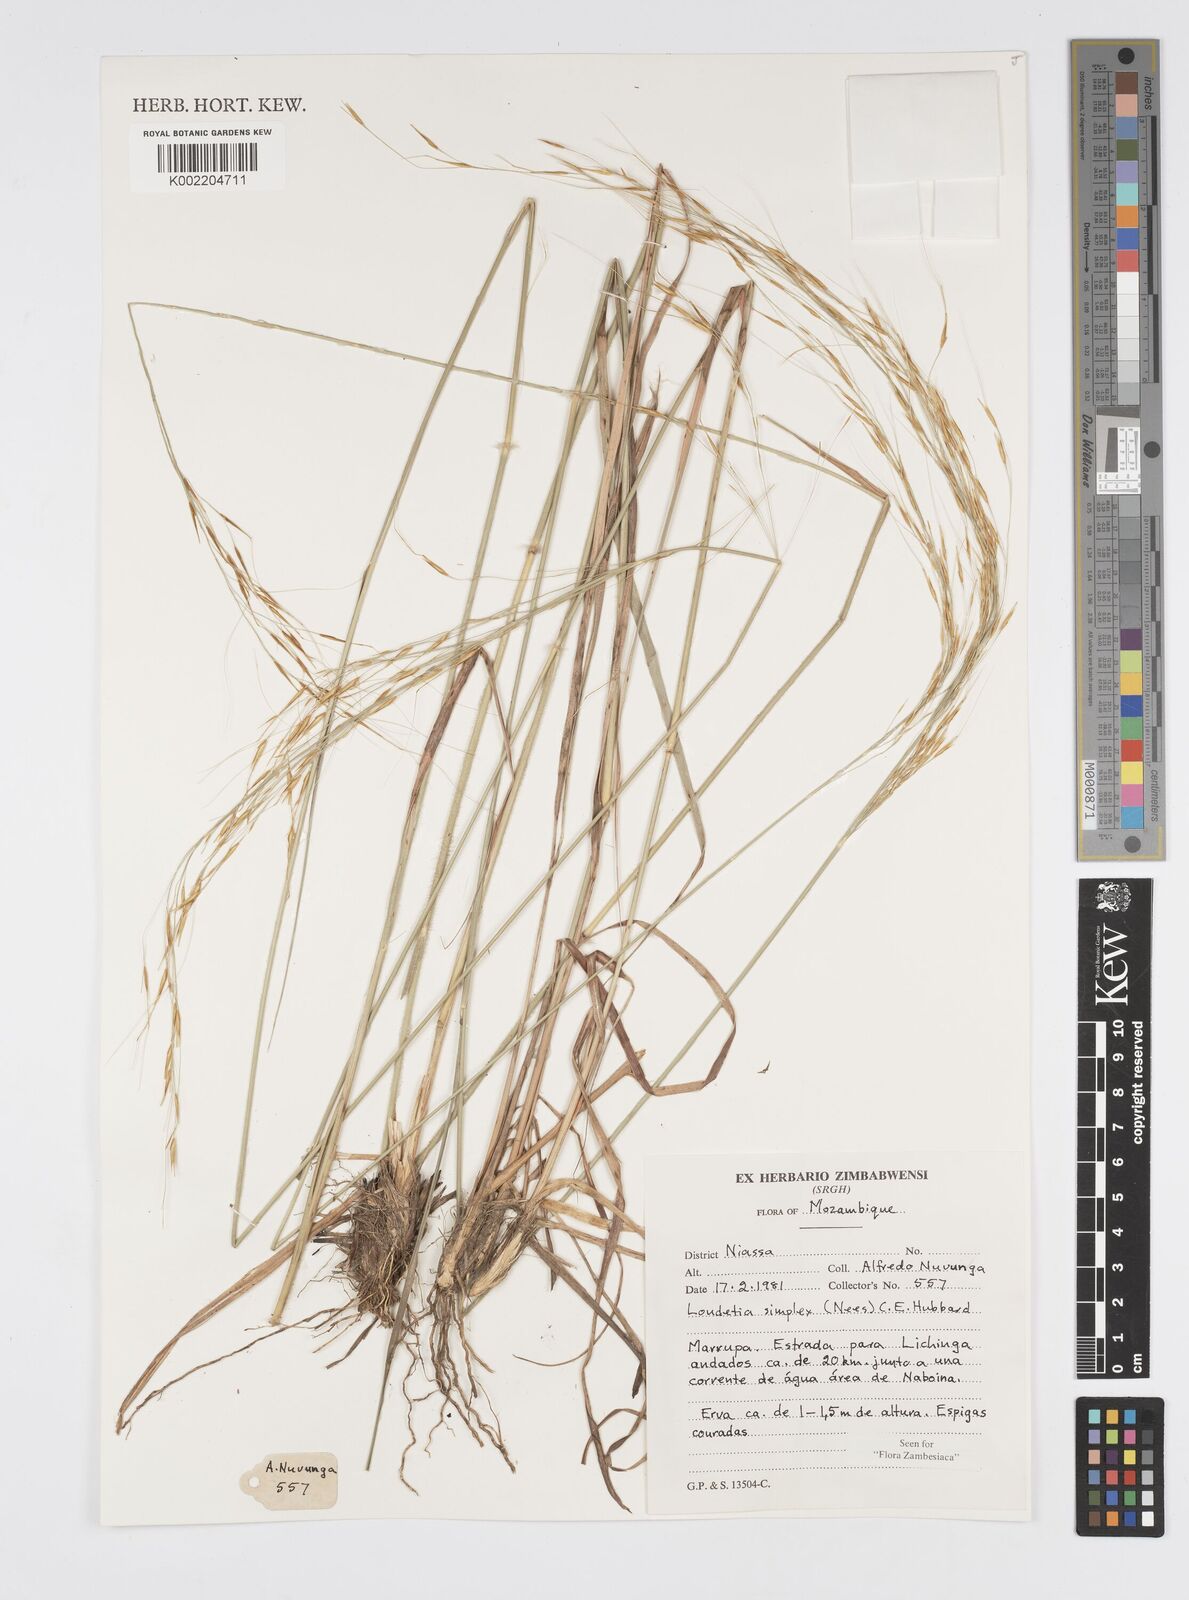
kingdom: Plantae
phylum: Tracheophyta
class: Liliopsida
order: Poales
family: Poaceae
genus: Loudetia
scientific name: Loudetia simplex
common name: Common russet grass
